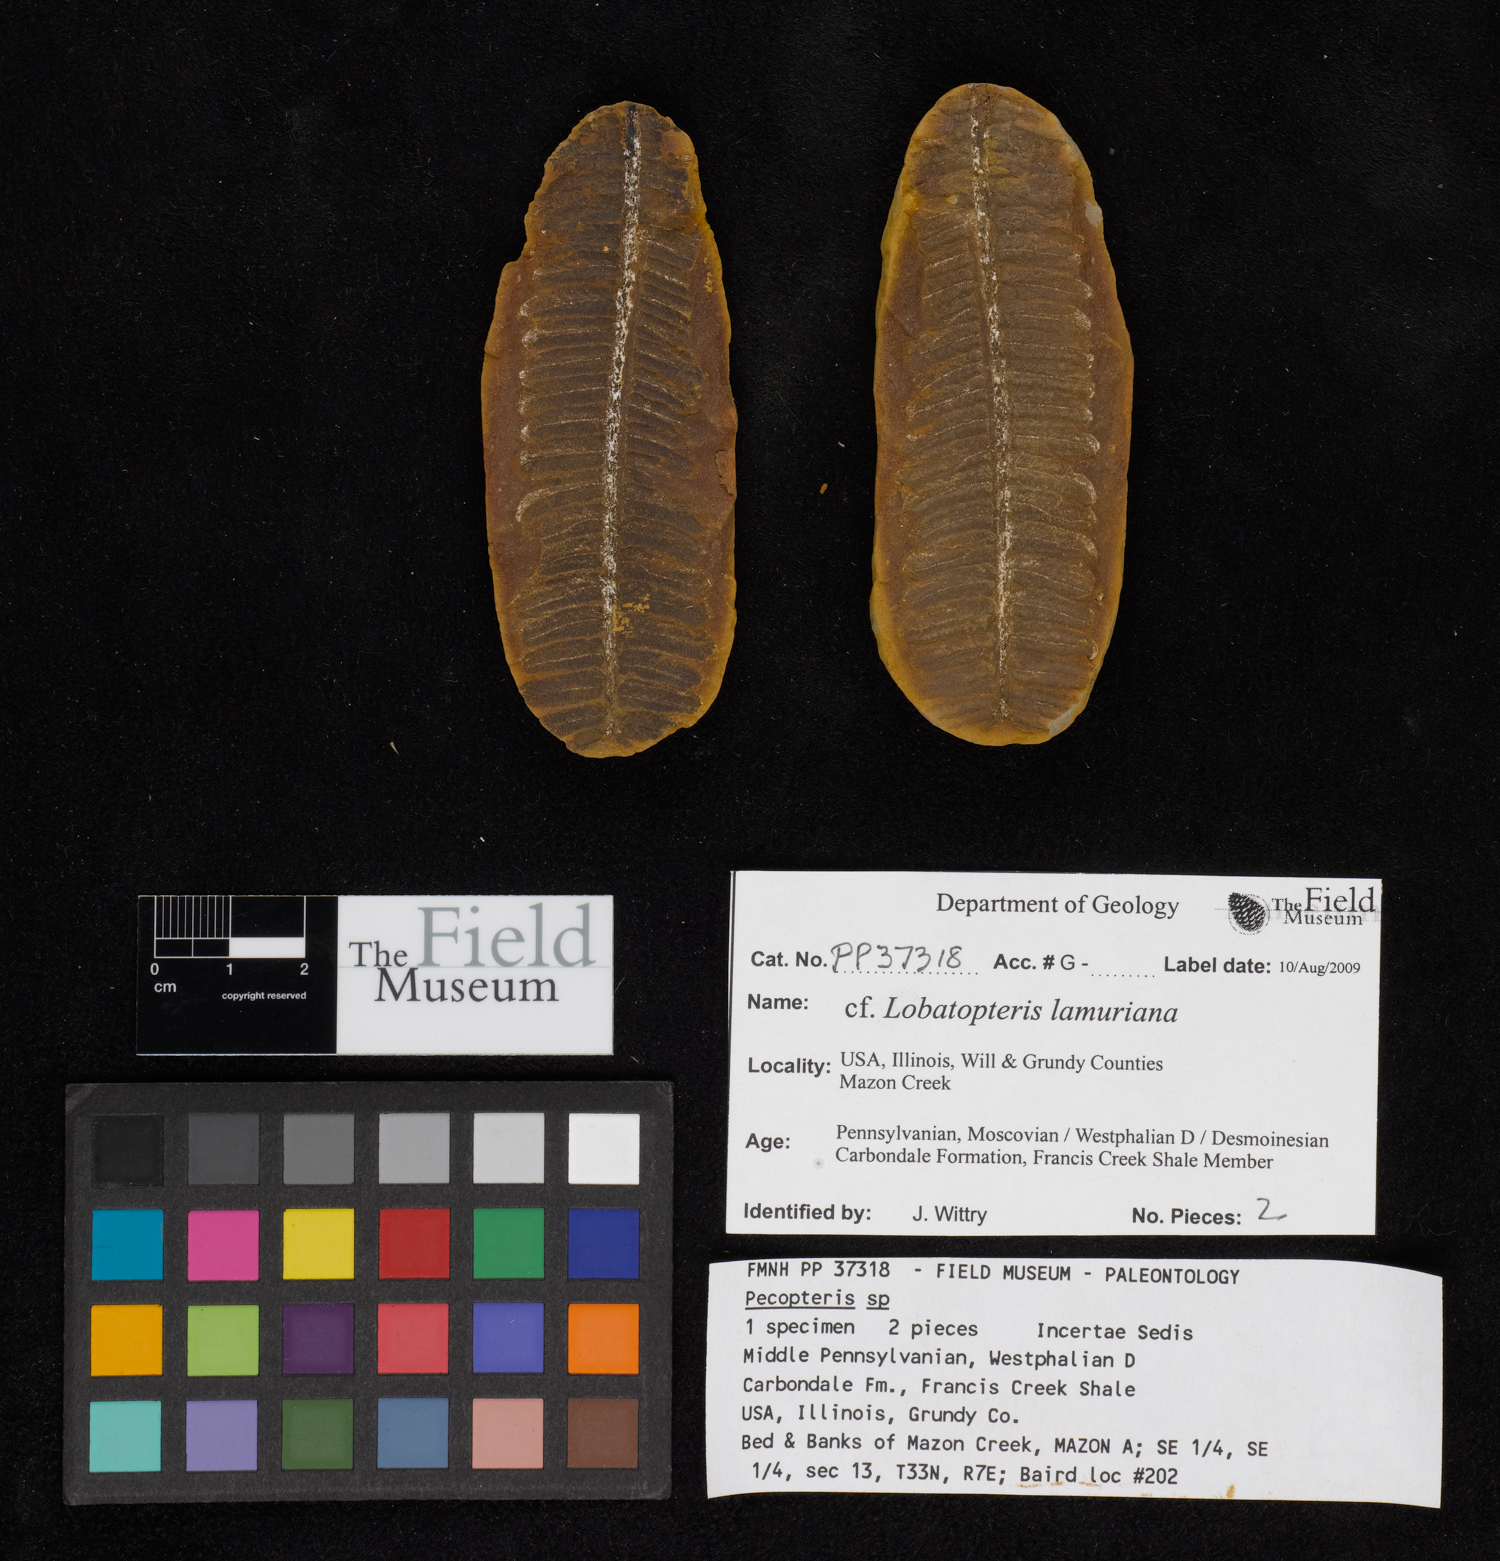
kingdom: Plantae
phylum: Tracheophyta
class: Polypodiopsida
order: Marattiales
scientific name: Marattiales
